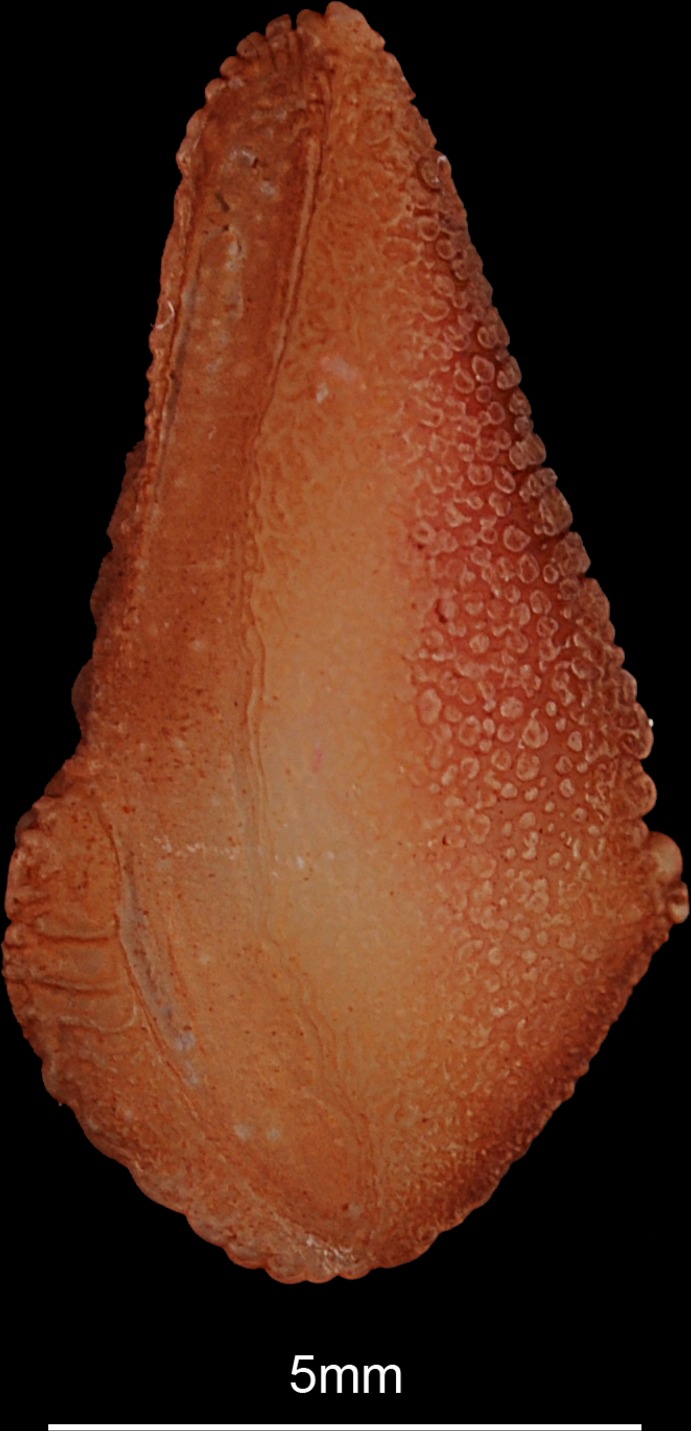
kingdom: Animalia
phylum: Chordata
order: Osteoglossiformes
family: Arapaimidae
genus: Heterotis
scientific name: Heterotis niloticus
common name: African bonytongue
